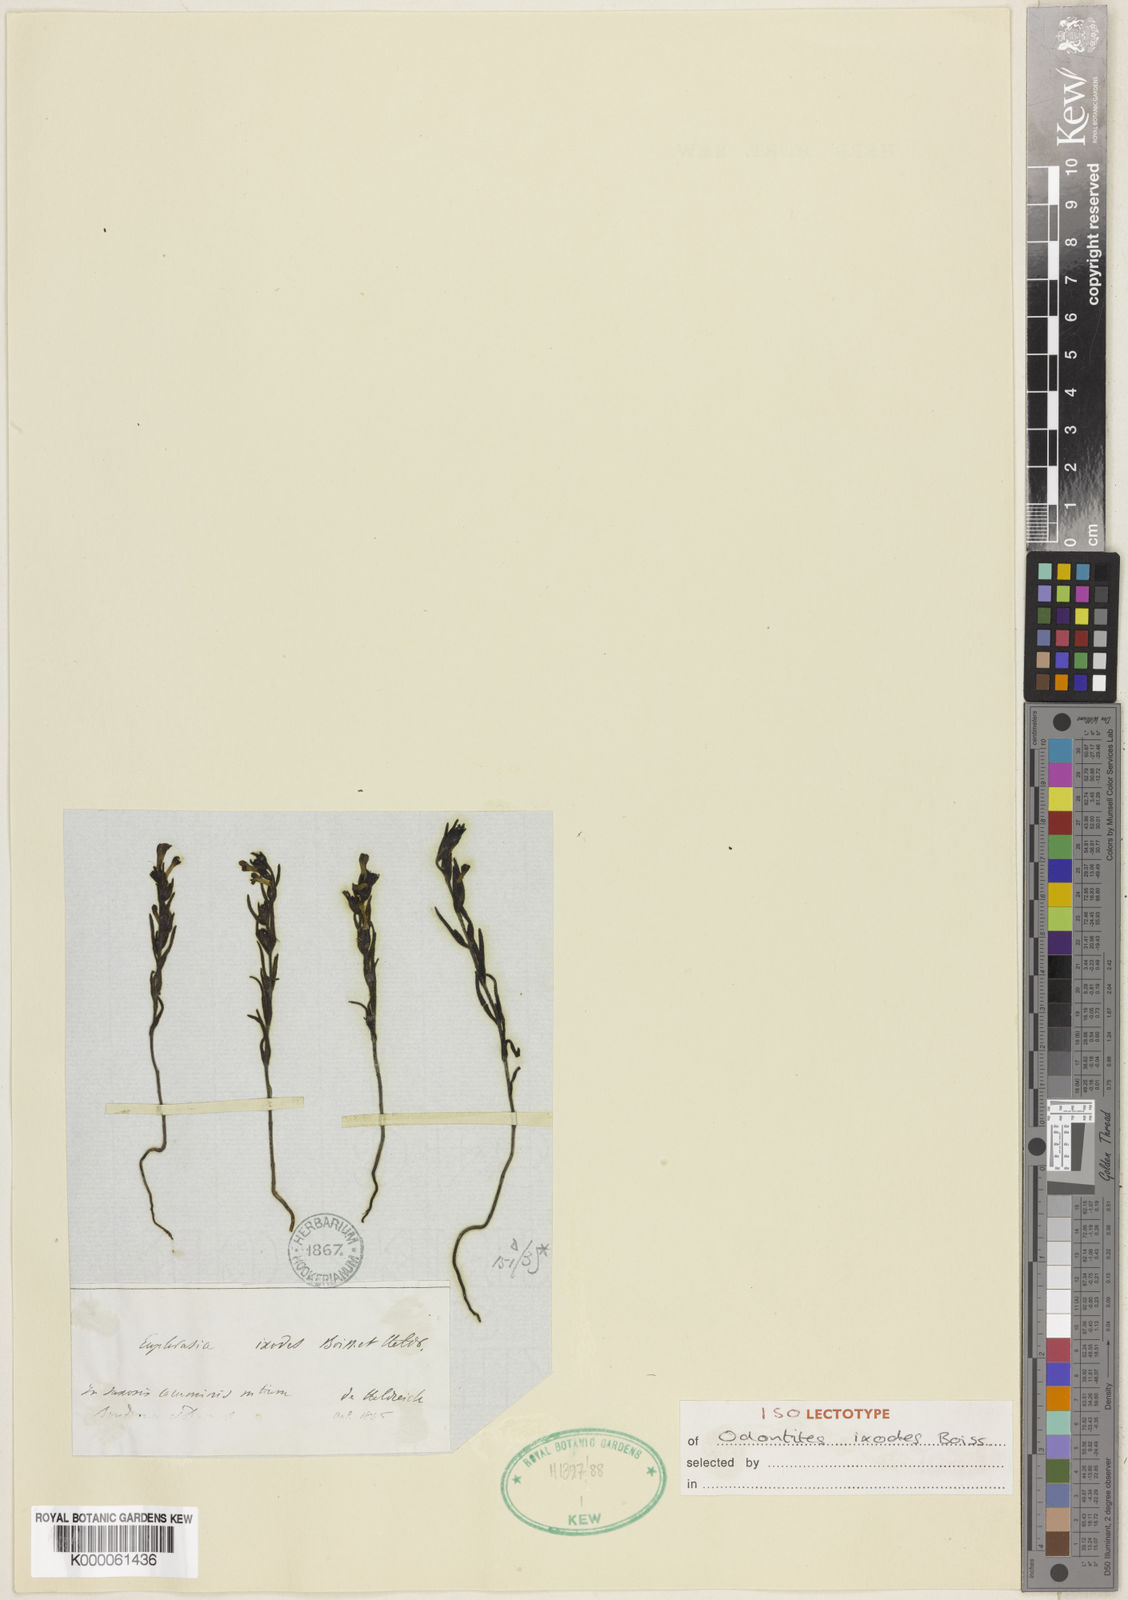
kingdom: Plantae
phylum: Tracheophyta
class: Magnoliopsida
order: Lamiales
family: Orobanchaceae
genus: Odontites
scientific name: Odontites glutinosus
